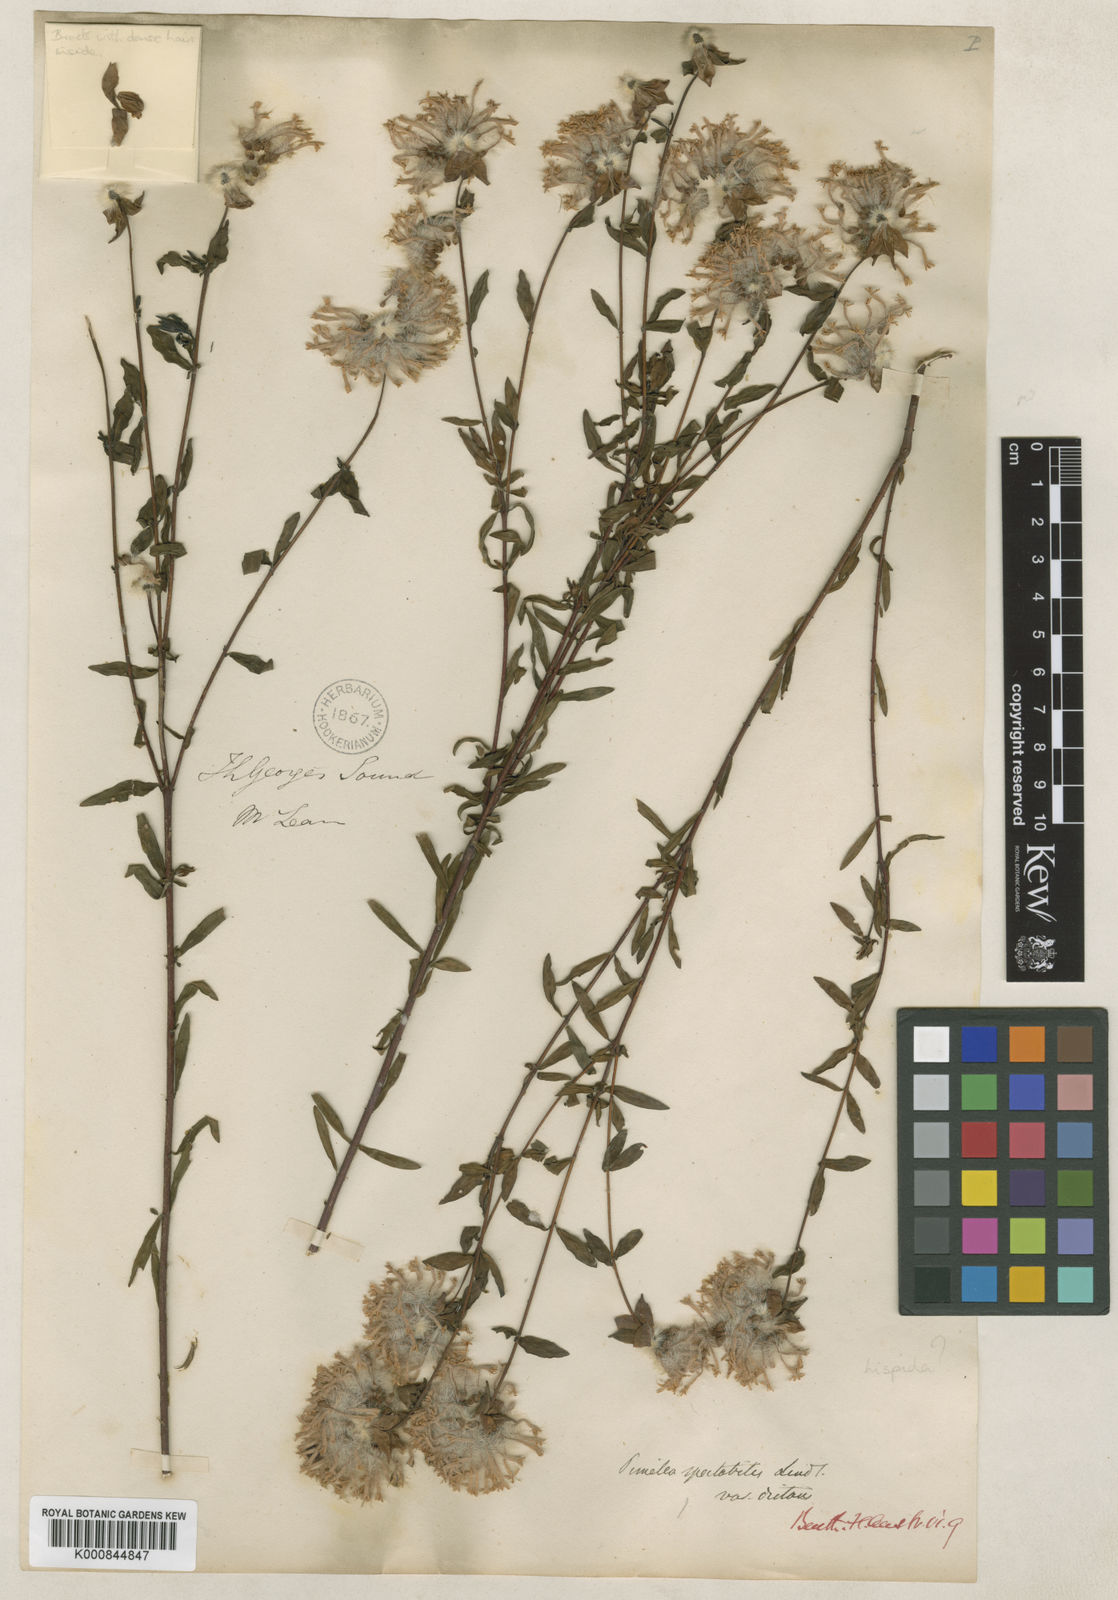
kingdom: Plantae
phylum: Tracheophyta
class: Magnoliopsida
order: Malvales
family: Thymelaeaceae
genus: Pimelea
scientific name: Pimelea hispida
